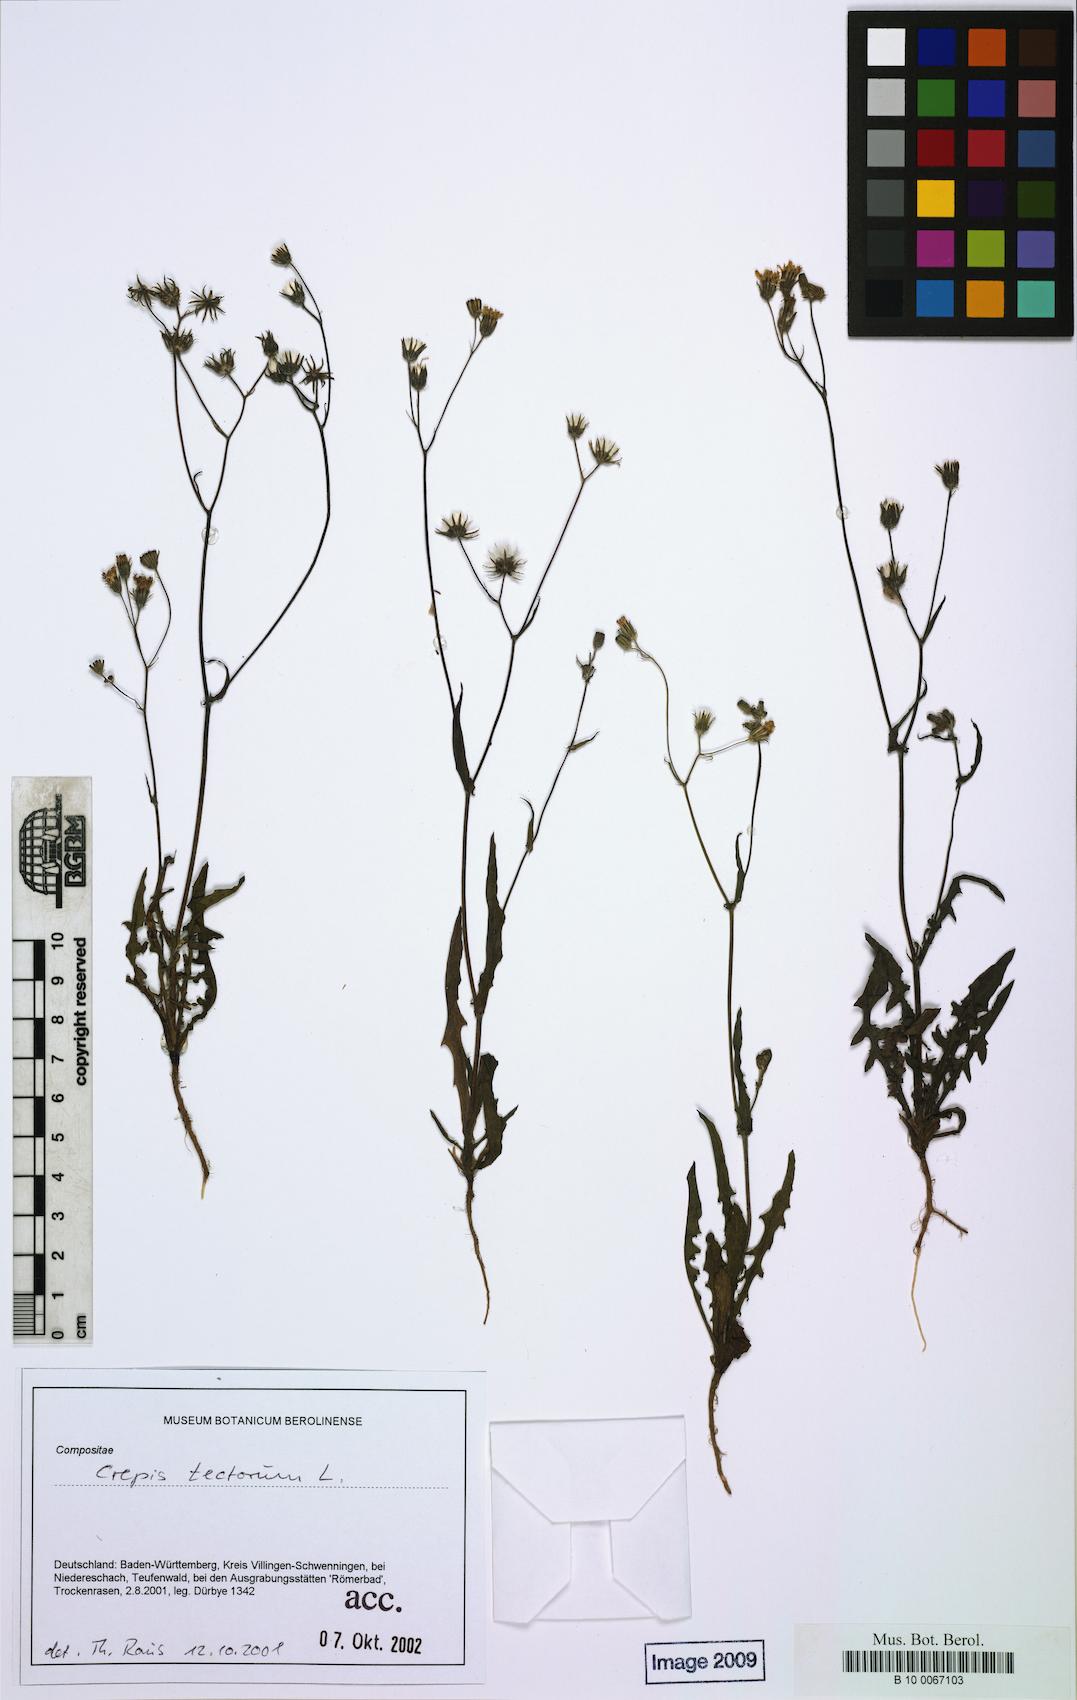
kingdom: Plantae
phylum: Tracheophyta
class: Magnoliopsida
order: Asterales
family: Asteraceae
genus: Crepis
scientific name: Crepis tectorum
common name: Narrow-leaved hawk's-beard
